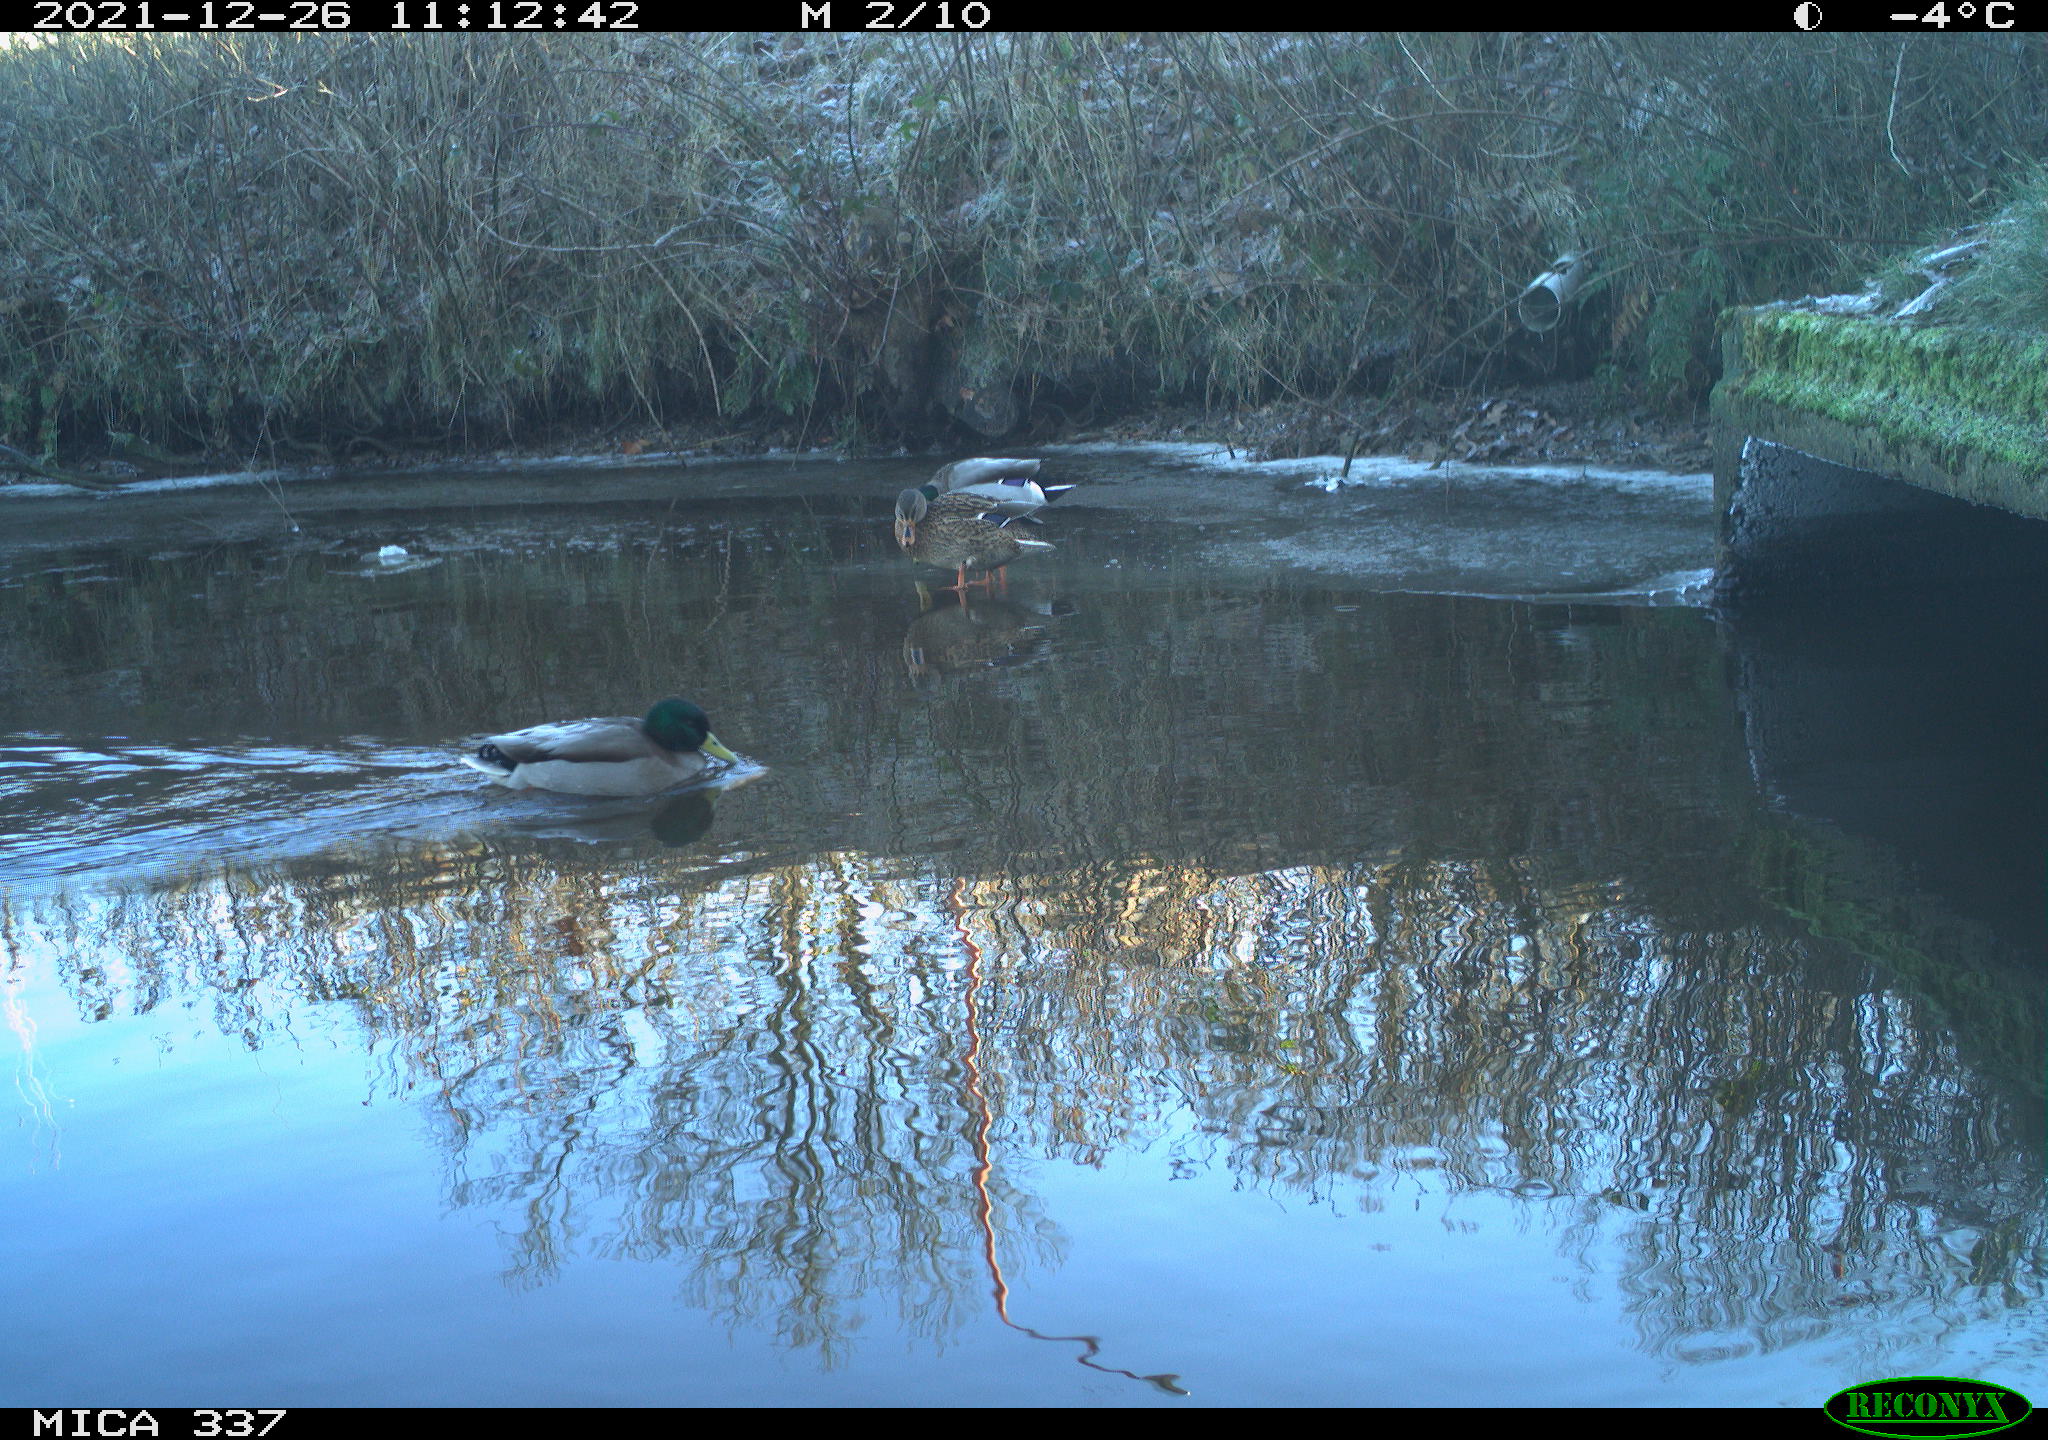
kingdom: Animalia
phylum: Chordata
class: Aves
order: Anseriformes
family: Anatidae
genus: Anas
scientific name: Anas platyrhynchos
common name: Mallard
